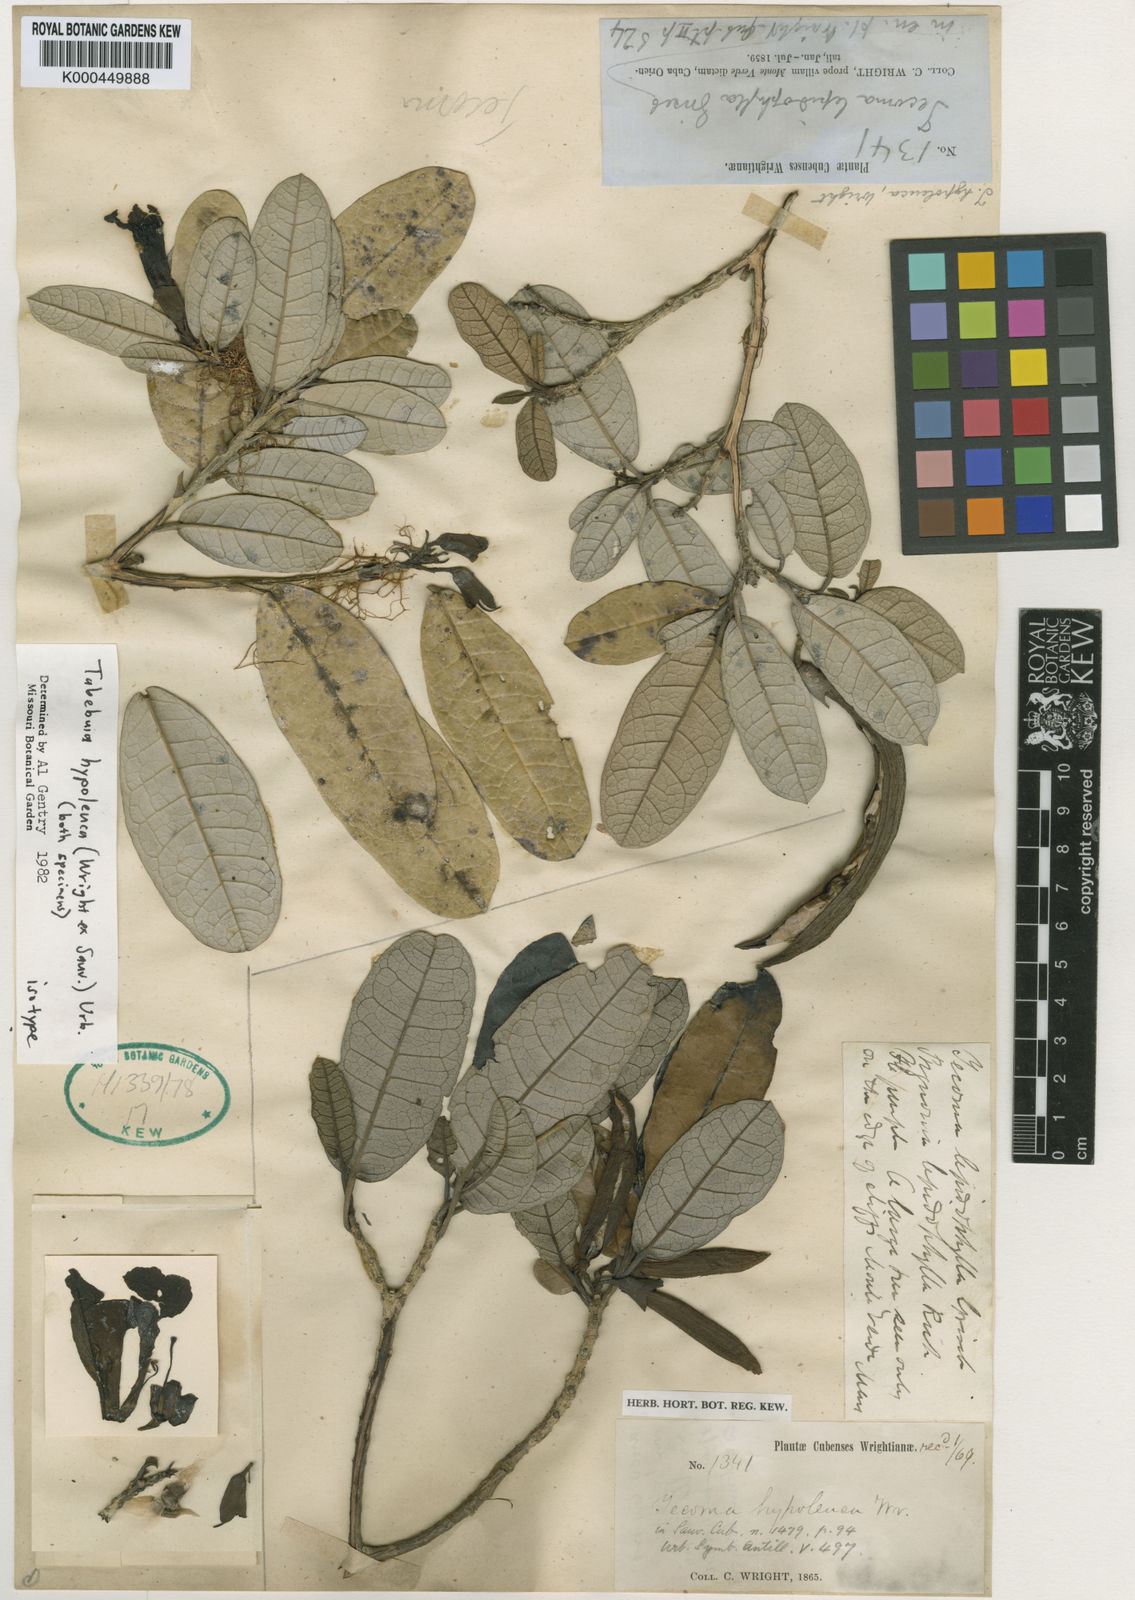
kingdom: Plantae
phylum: Tracheophyta
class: Magnoliopsida
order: Lamiales
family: Bignoniaceae
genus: Tabebuia
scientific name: Tabebuia hypoleuca
